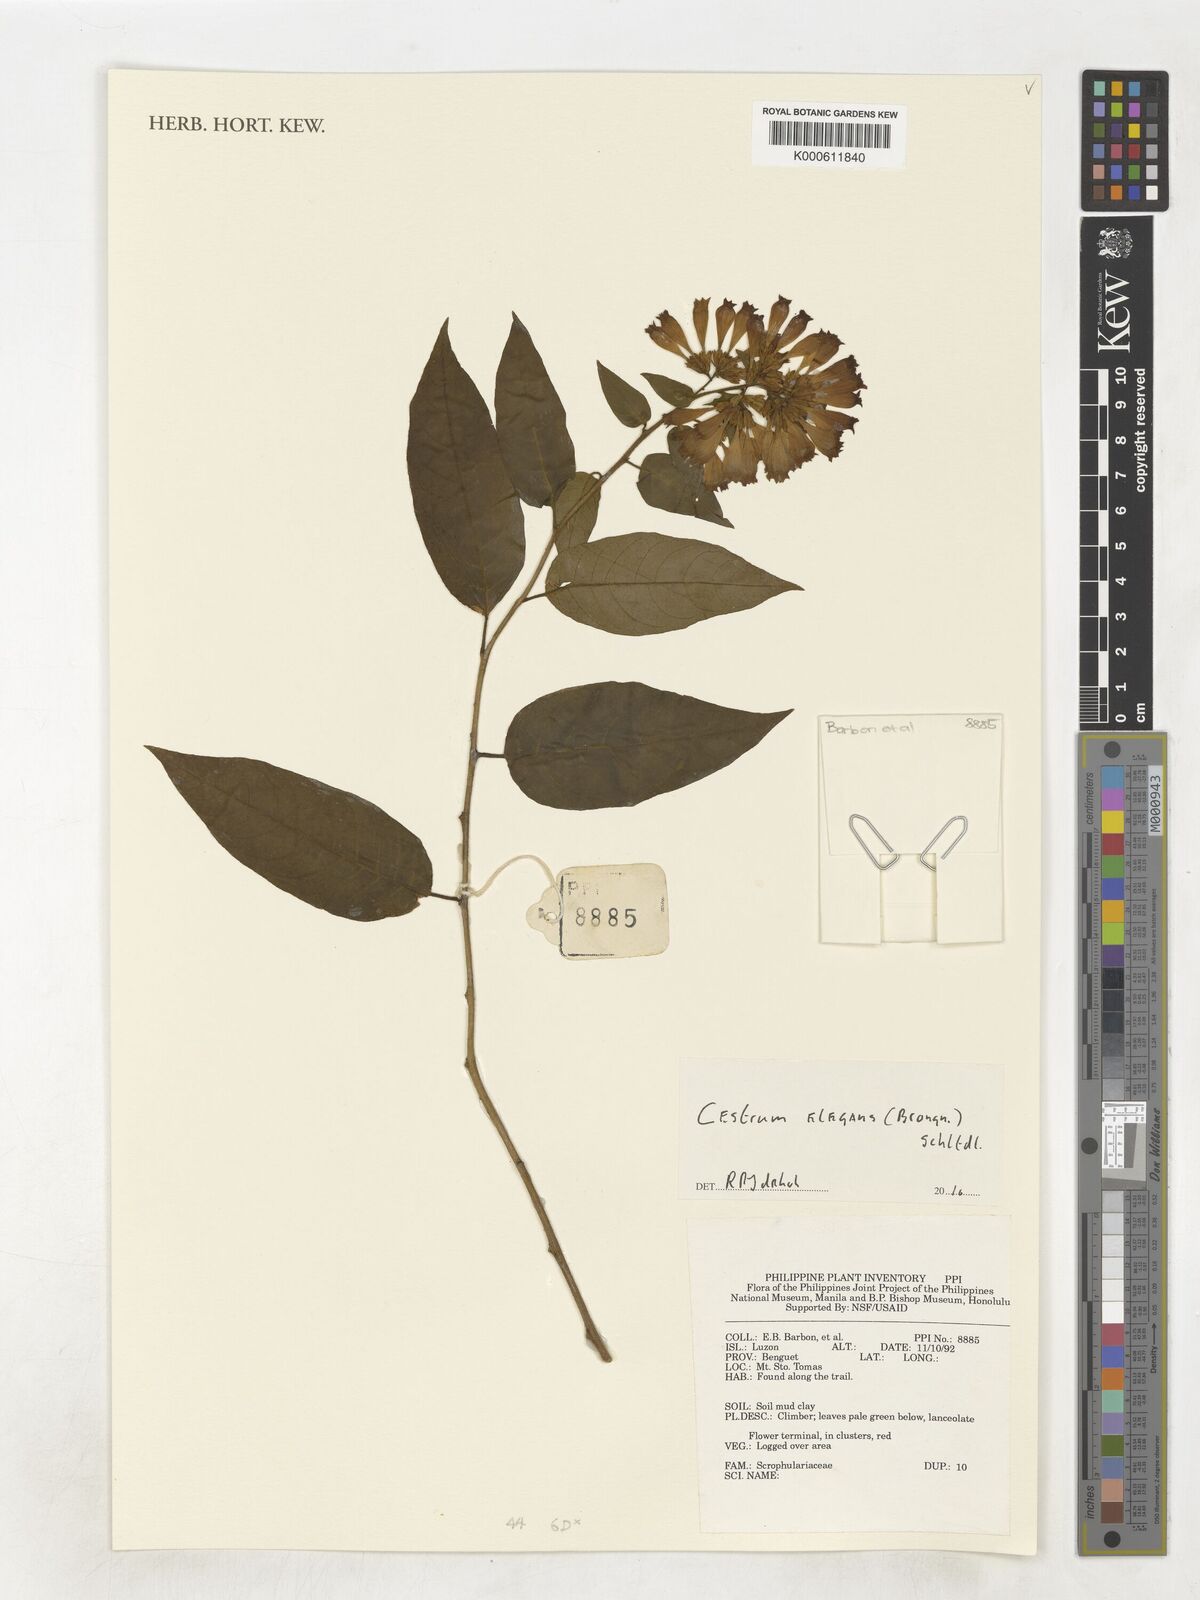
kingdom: Plantae
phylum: Tracheophyta
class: Magnoliopsida
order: Solanales
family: Solanaceae
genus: Cestrum
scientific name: Cestrum elegans
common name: Crimson cestrum
